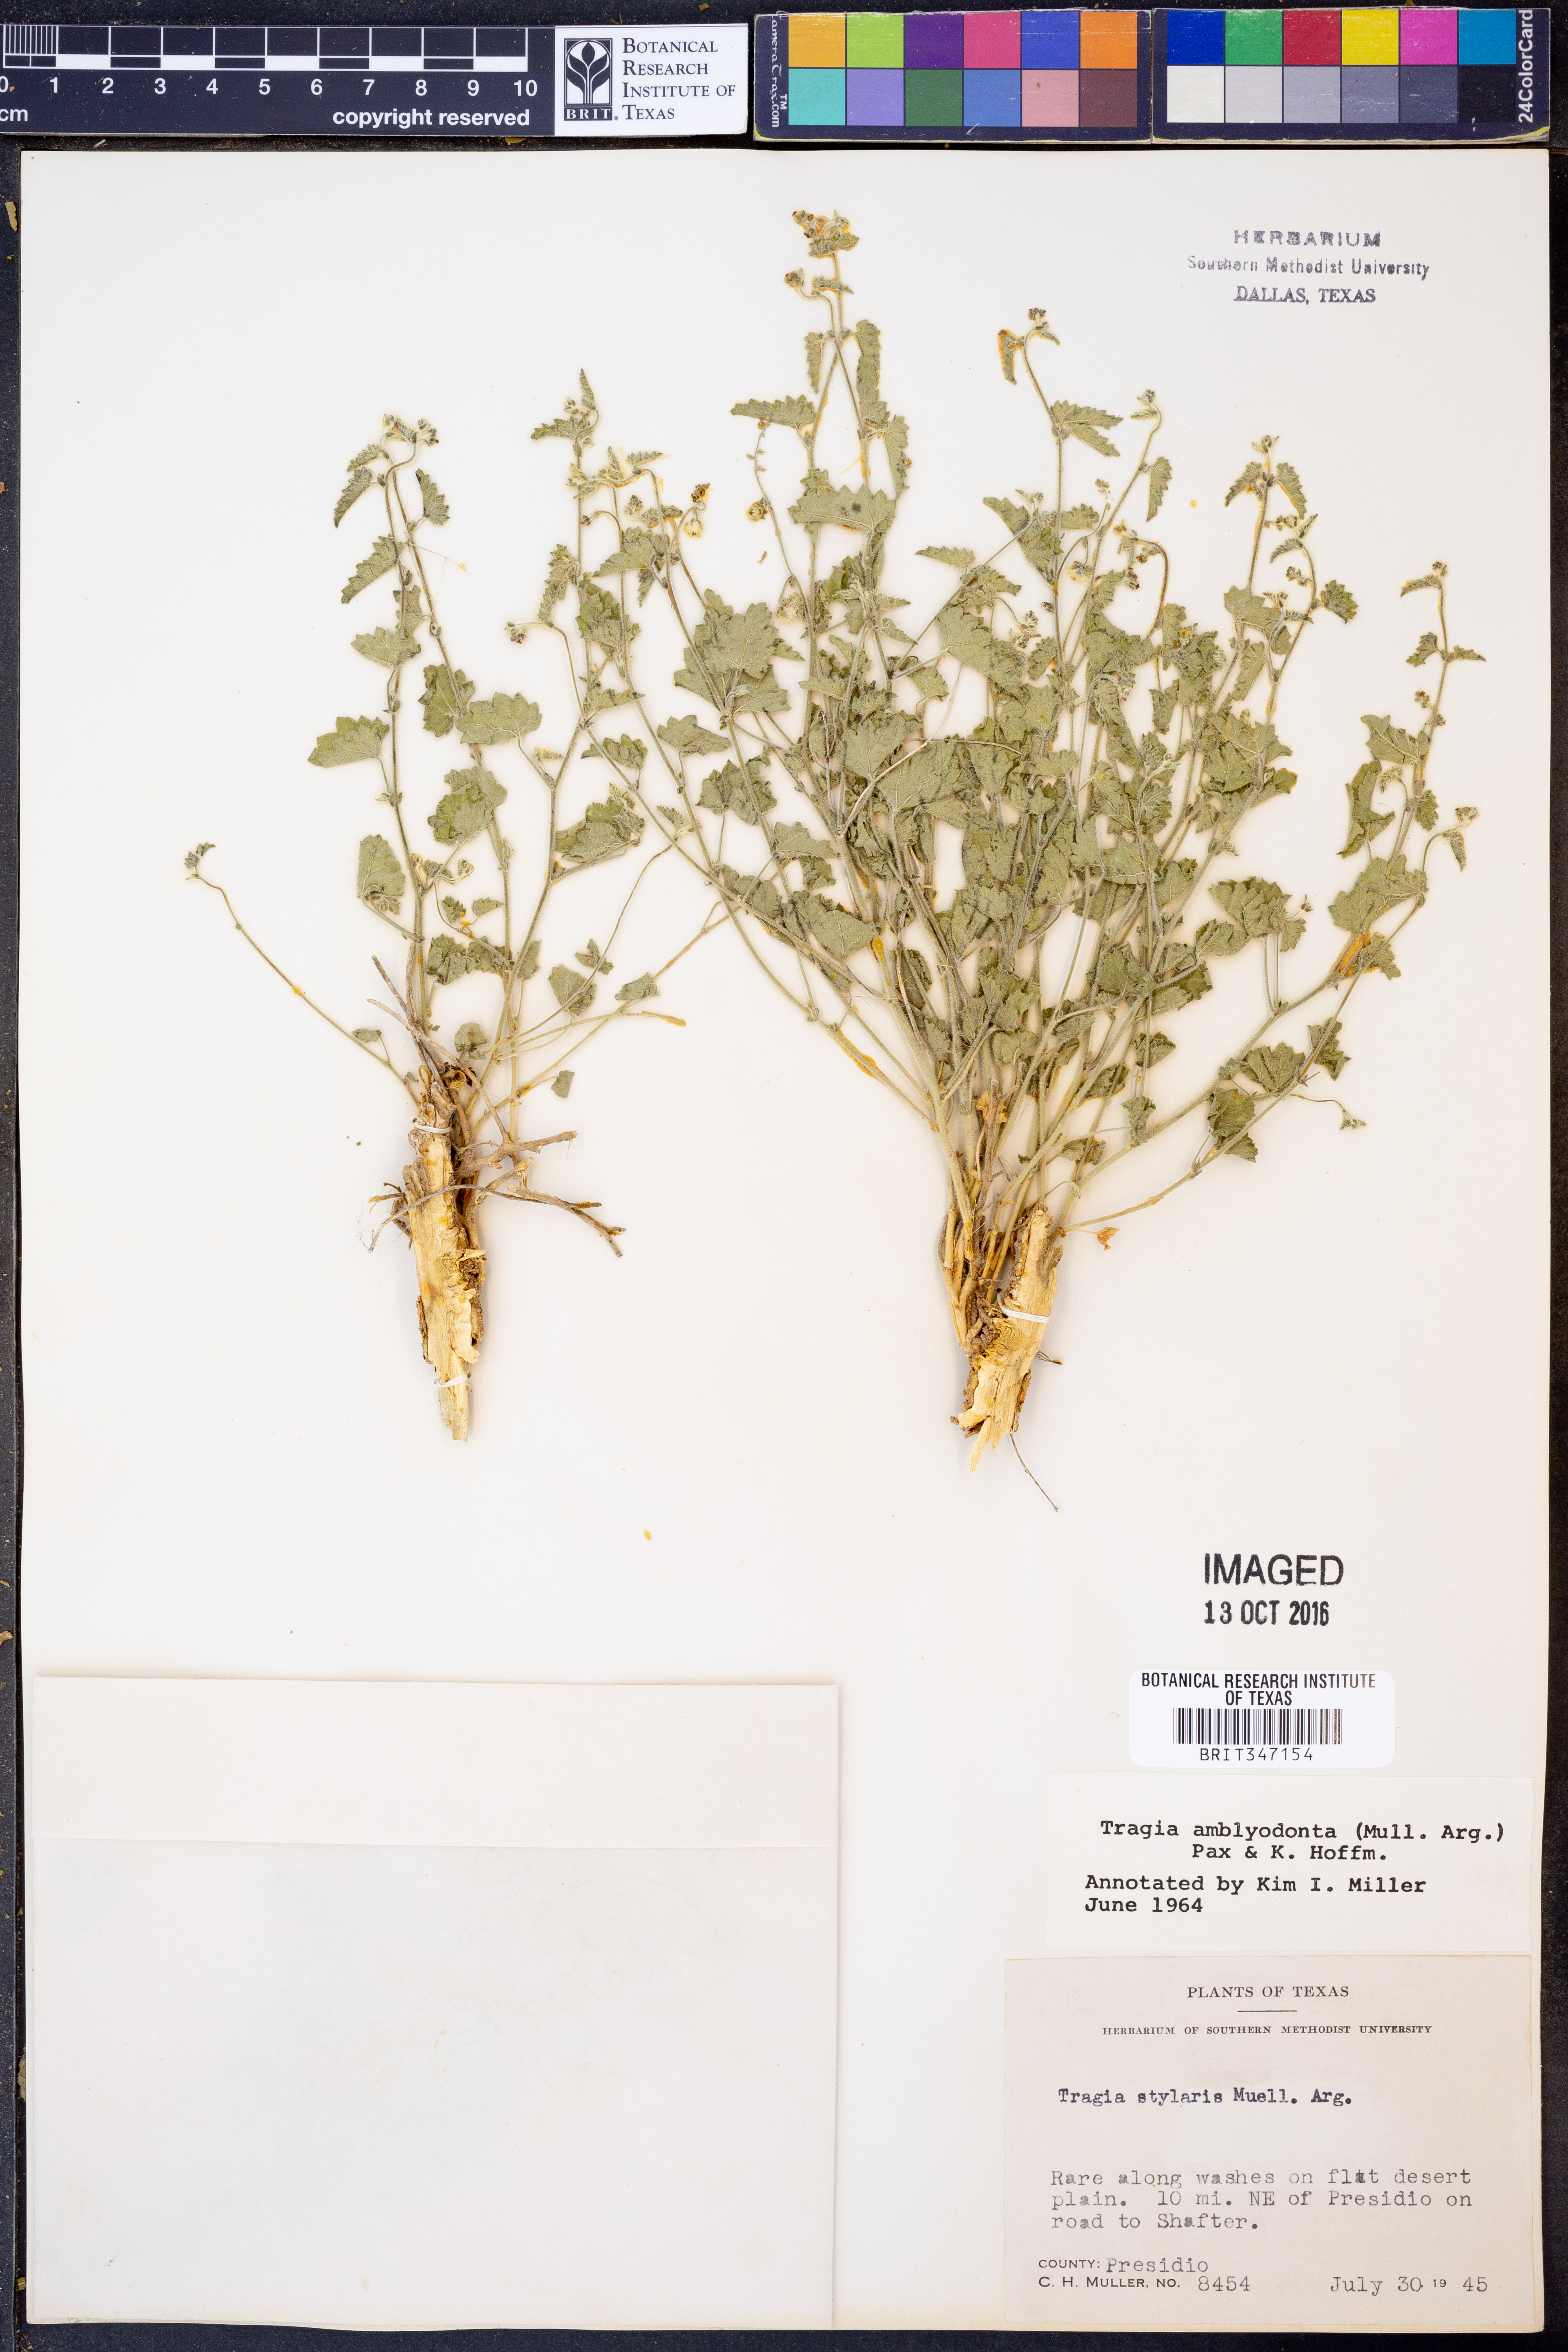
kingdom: Plantae
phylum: Tracheophyta
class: Magnoliopsida
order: Malpighiales
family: Euphorbiaceae
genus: Tragia
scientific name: Tragia amblyodonta
